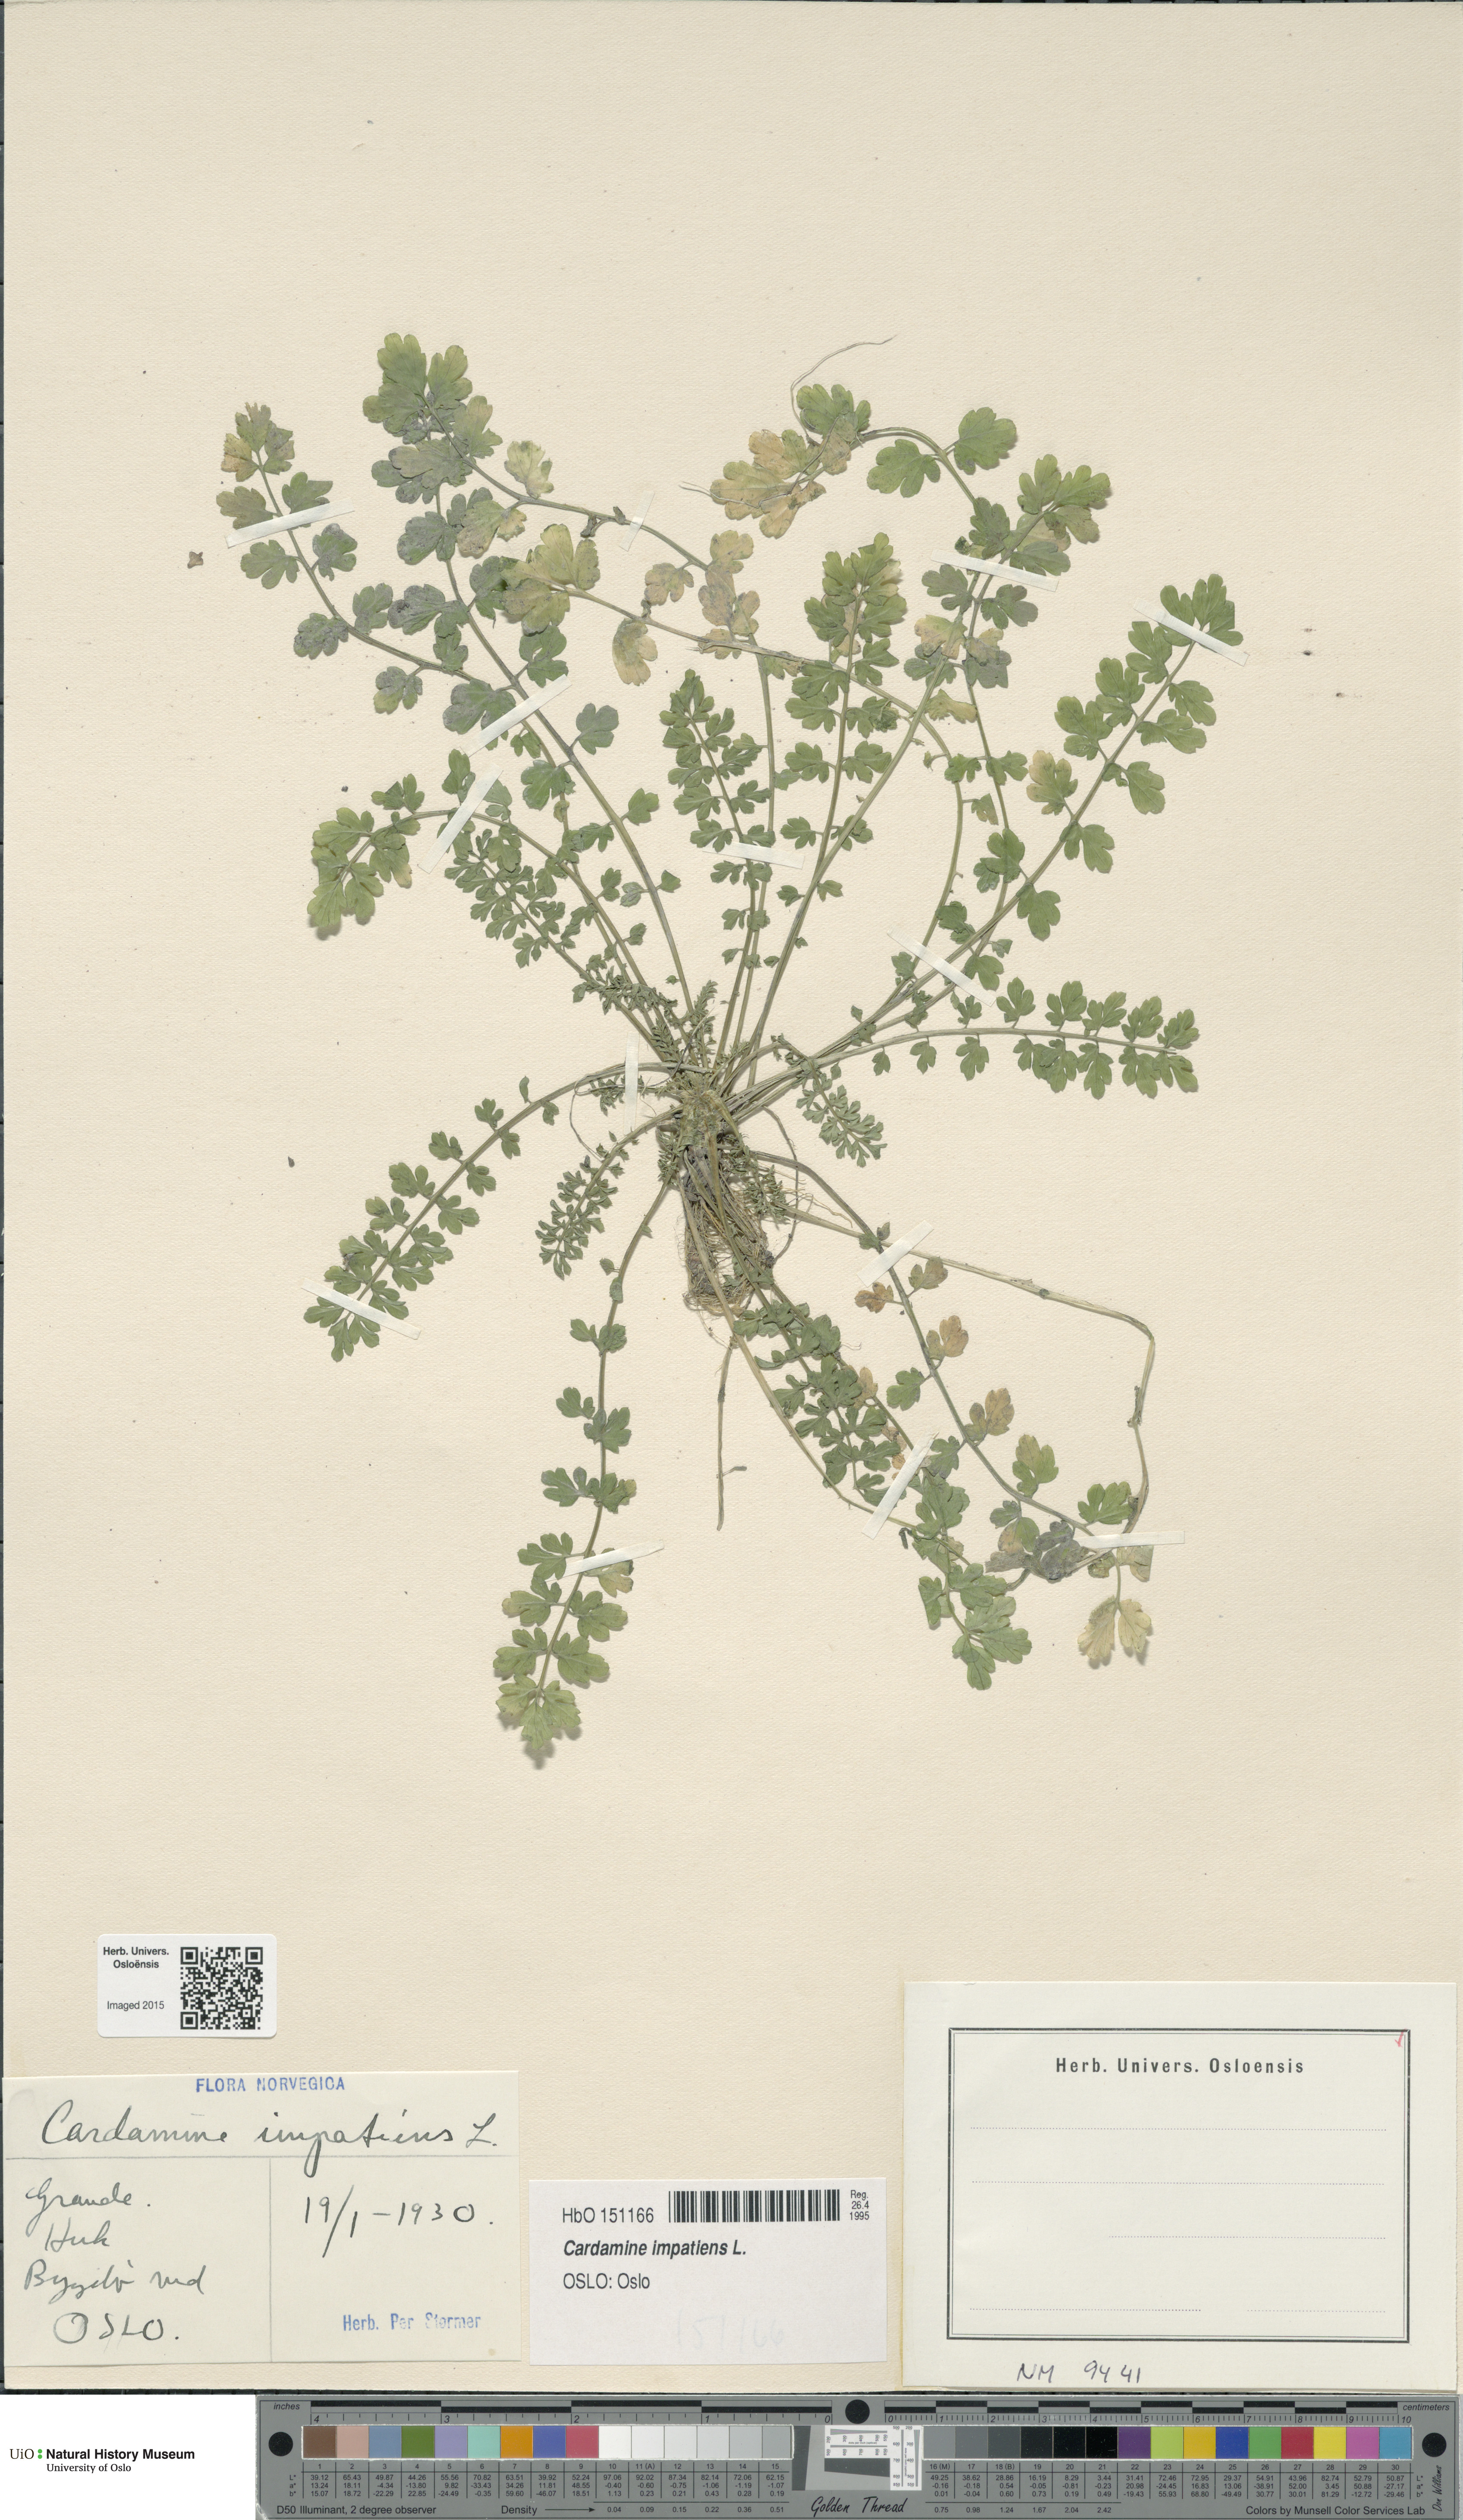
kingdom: Plantae
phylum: Tracheophyta
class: Magnoliopsida
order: Brassicales
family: Brassicaceae
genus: Cardamine
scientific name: Cardamine impatiens
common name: Narrow-leaved bitter-cress
